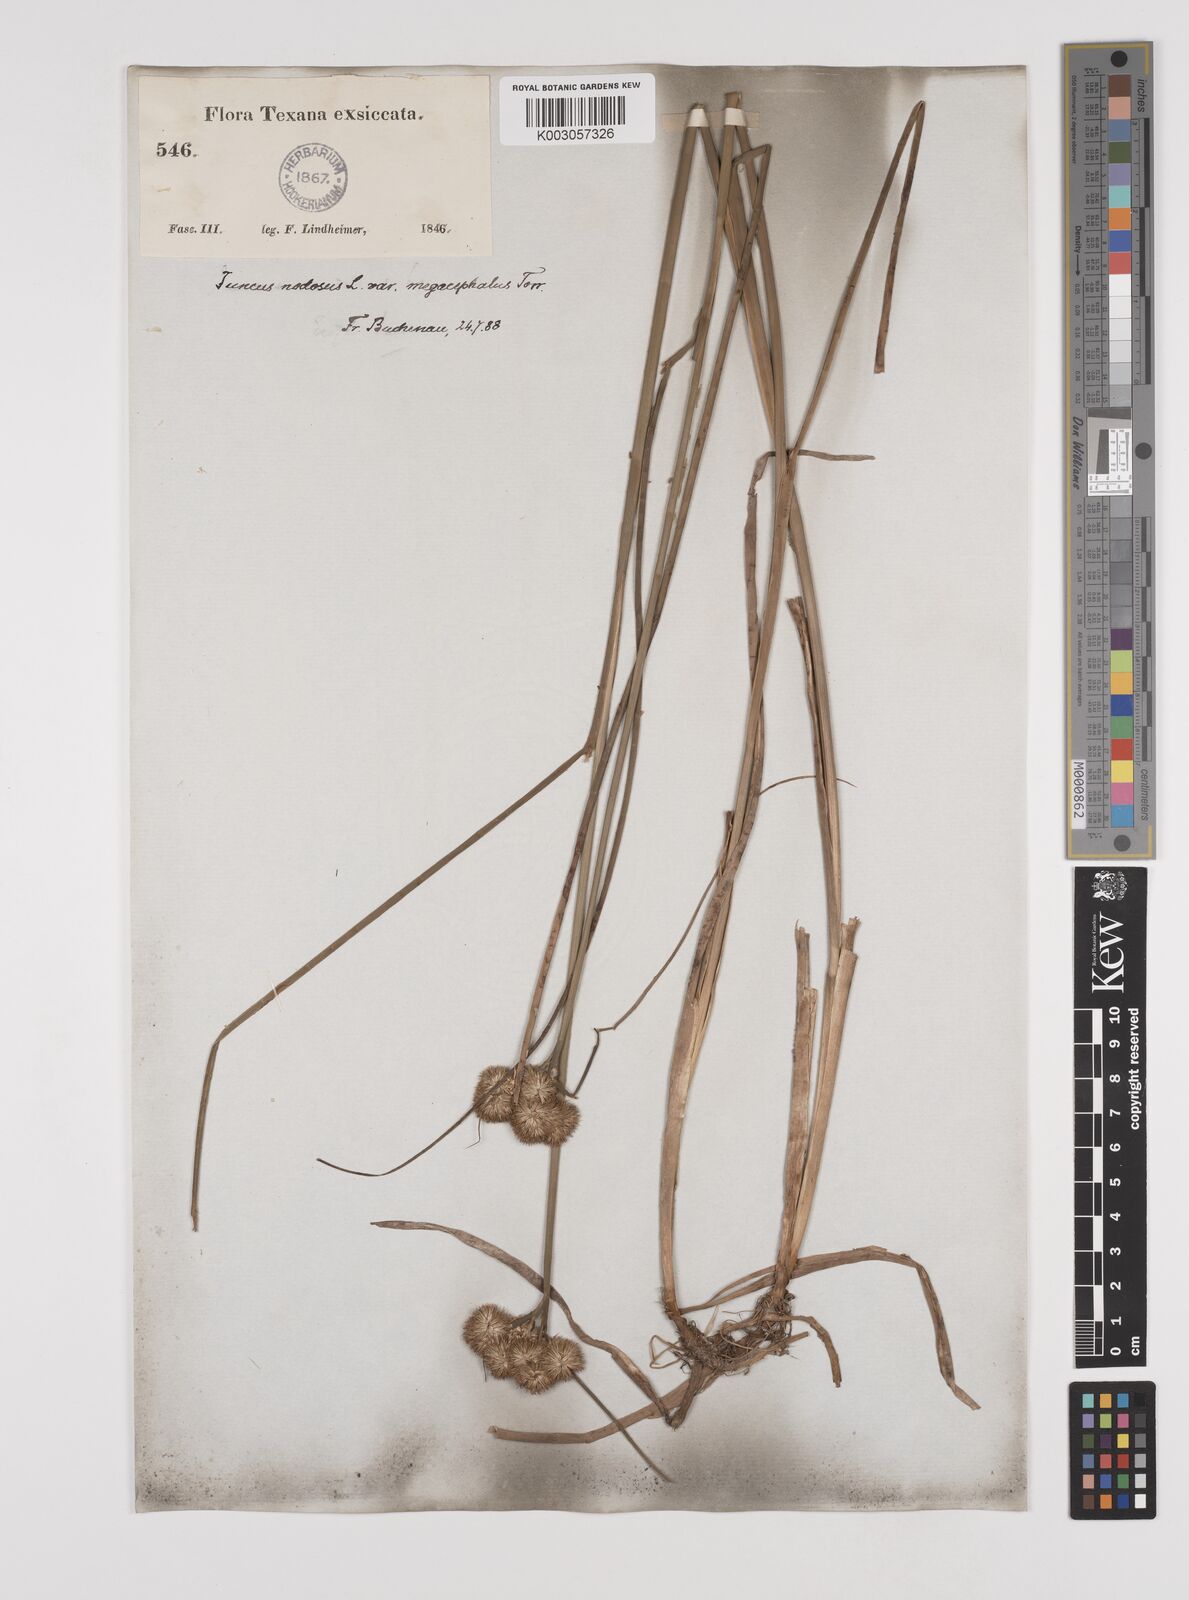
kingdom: Plantae
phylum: Tracheophyta
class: Liliopsida
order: Poales
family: Juncaceae
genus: Juncus
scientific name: Juncus nodosus
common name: Knotted rush
